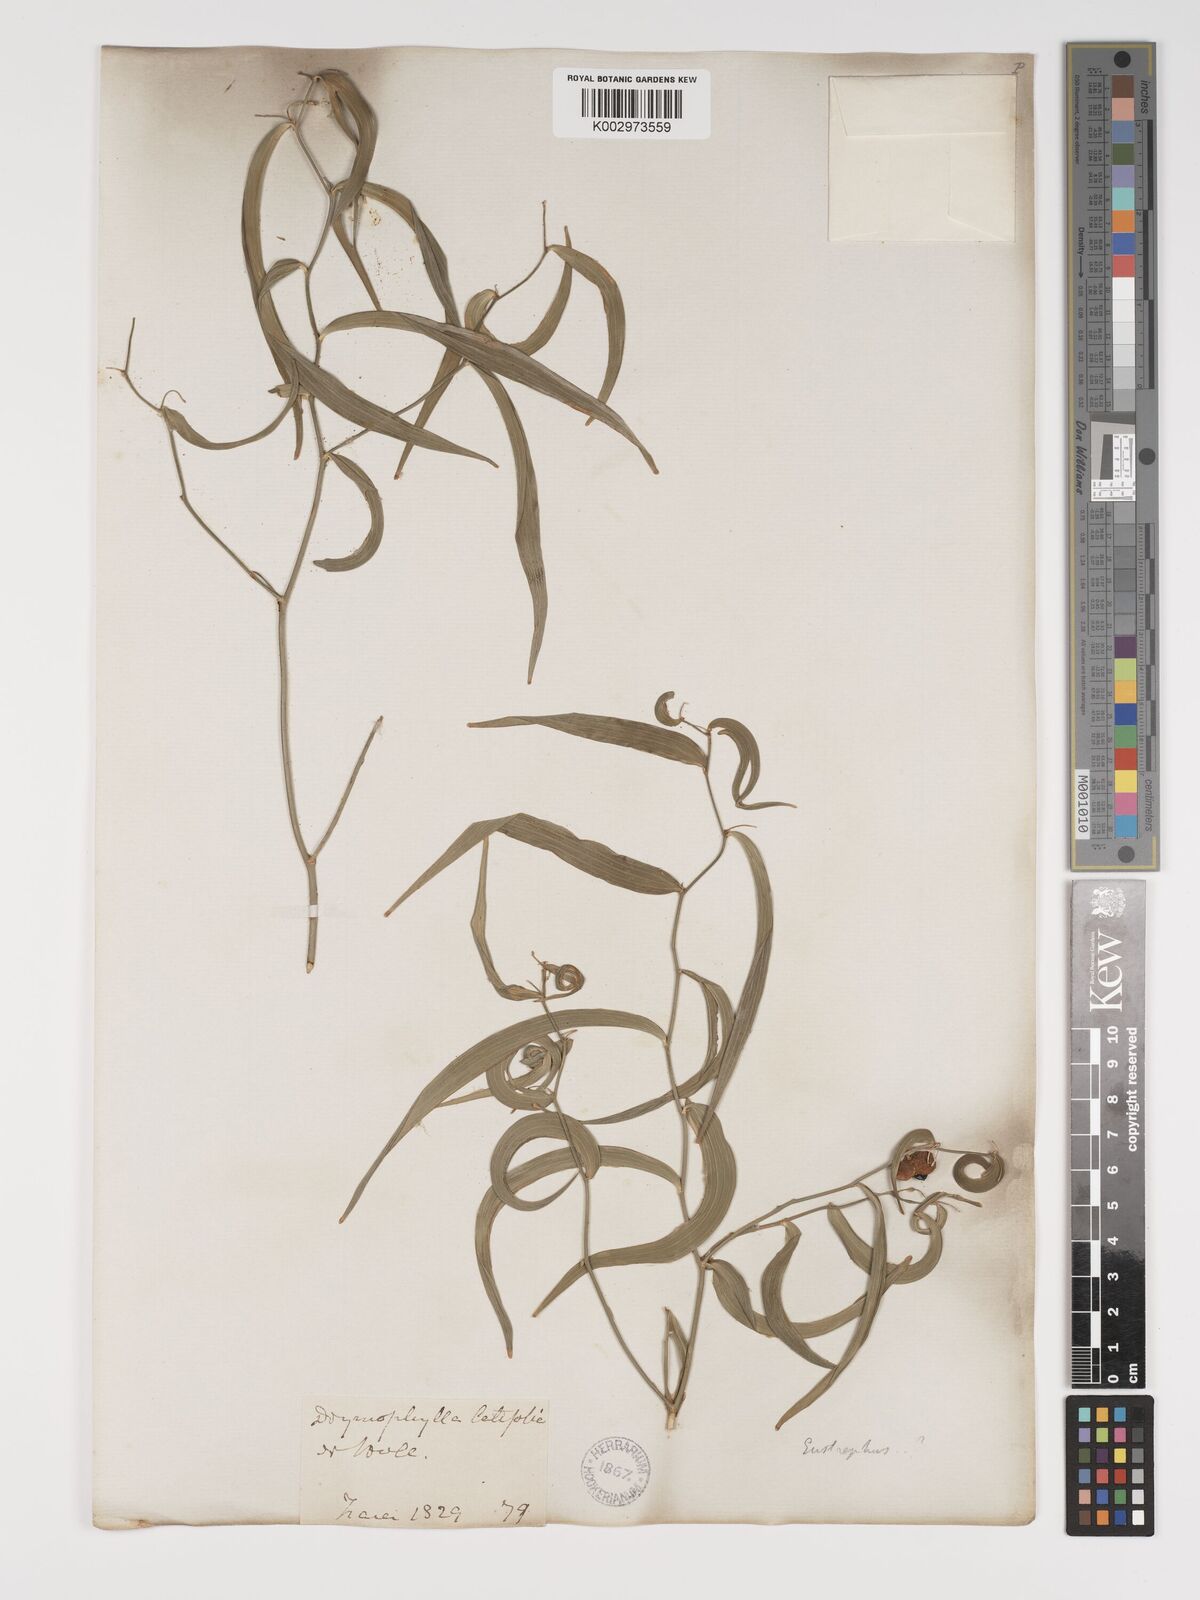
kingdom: Plantae
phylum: Tracheophyta
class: Liliopsida
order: Asparagales
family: Asparagaceae
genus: Eustrephus
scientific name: Eustrephus
